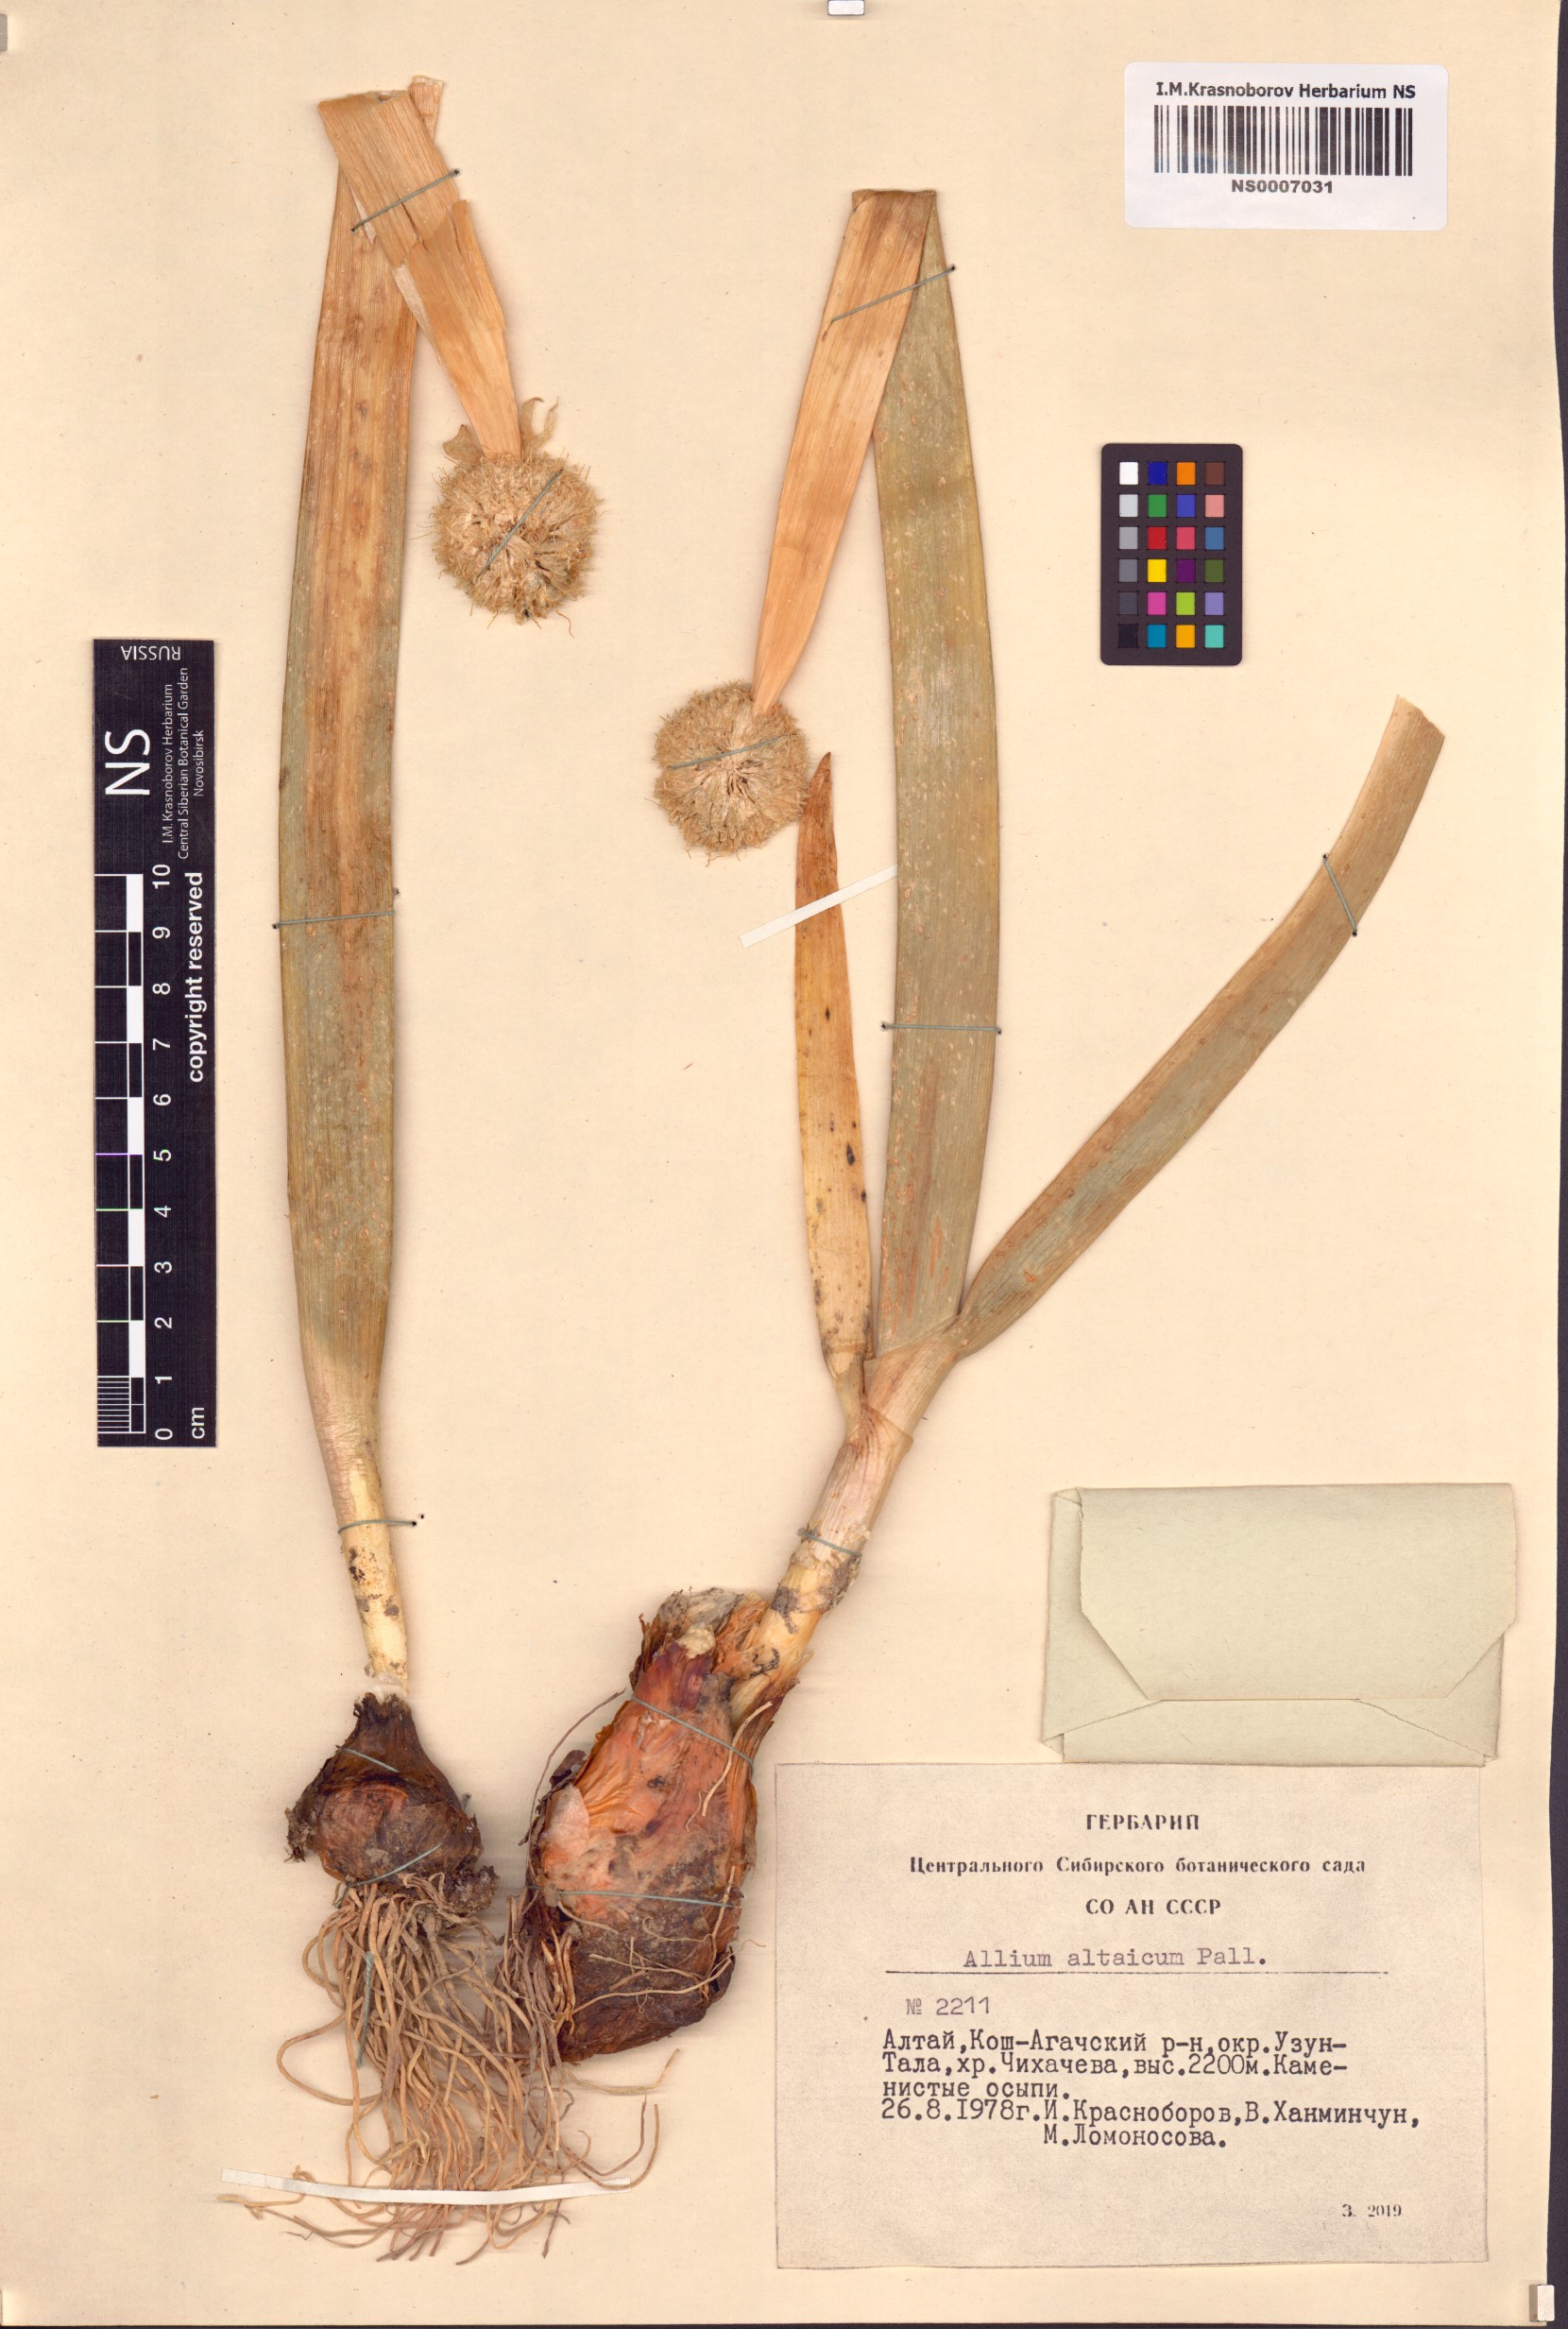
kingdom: Plantae
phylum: Tracheophyta
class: Liliopsida
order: Asparagales
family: Amaryllidaceae
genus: Allium
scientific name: Allium altaicum
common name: Altai onion
